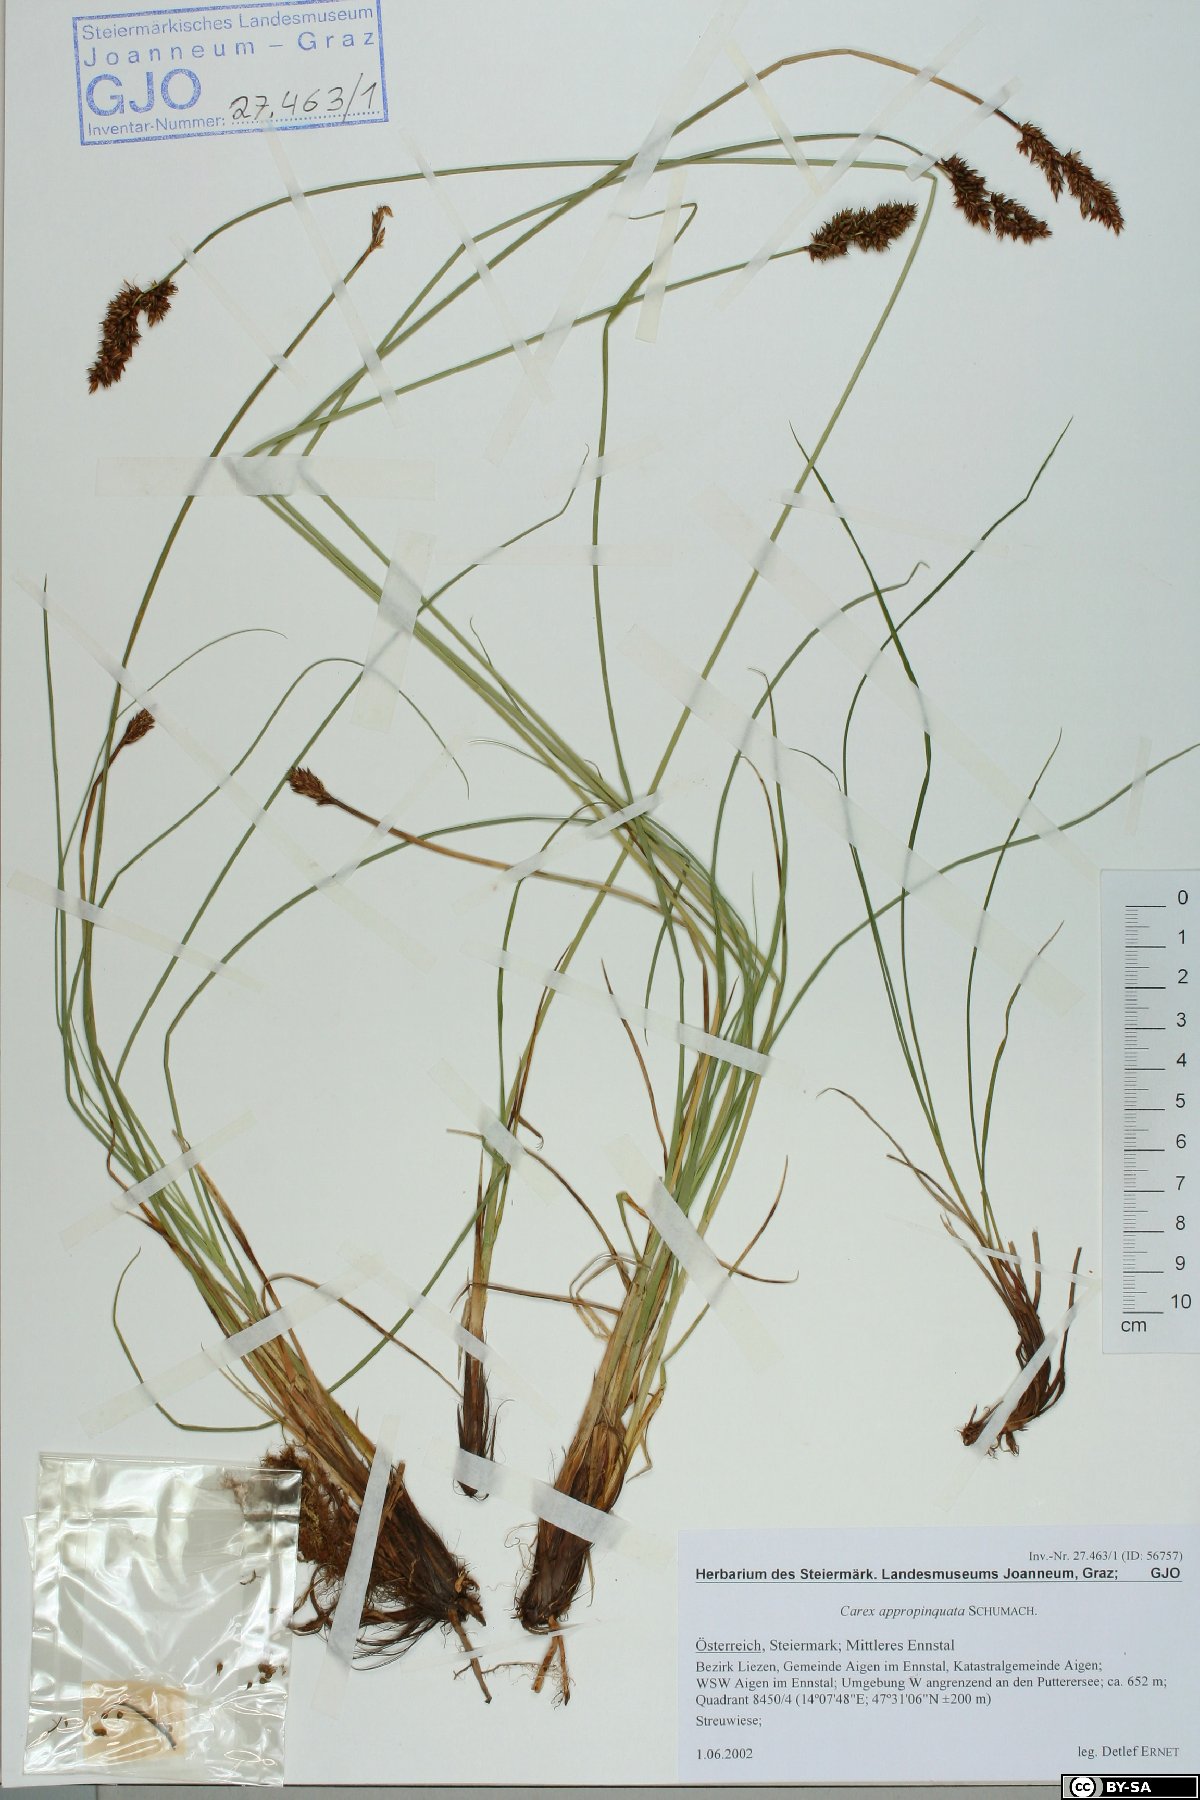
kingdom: Plantae
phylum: Tracheophyta
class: Liliopsida
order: Poales
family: Cyperaceae
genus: Carex
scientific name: Carex appropinquata
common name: Fibrous tussock-sedge
